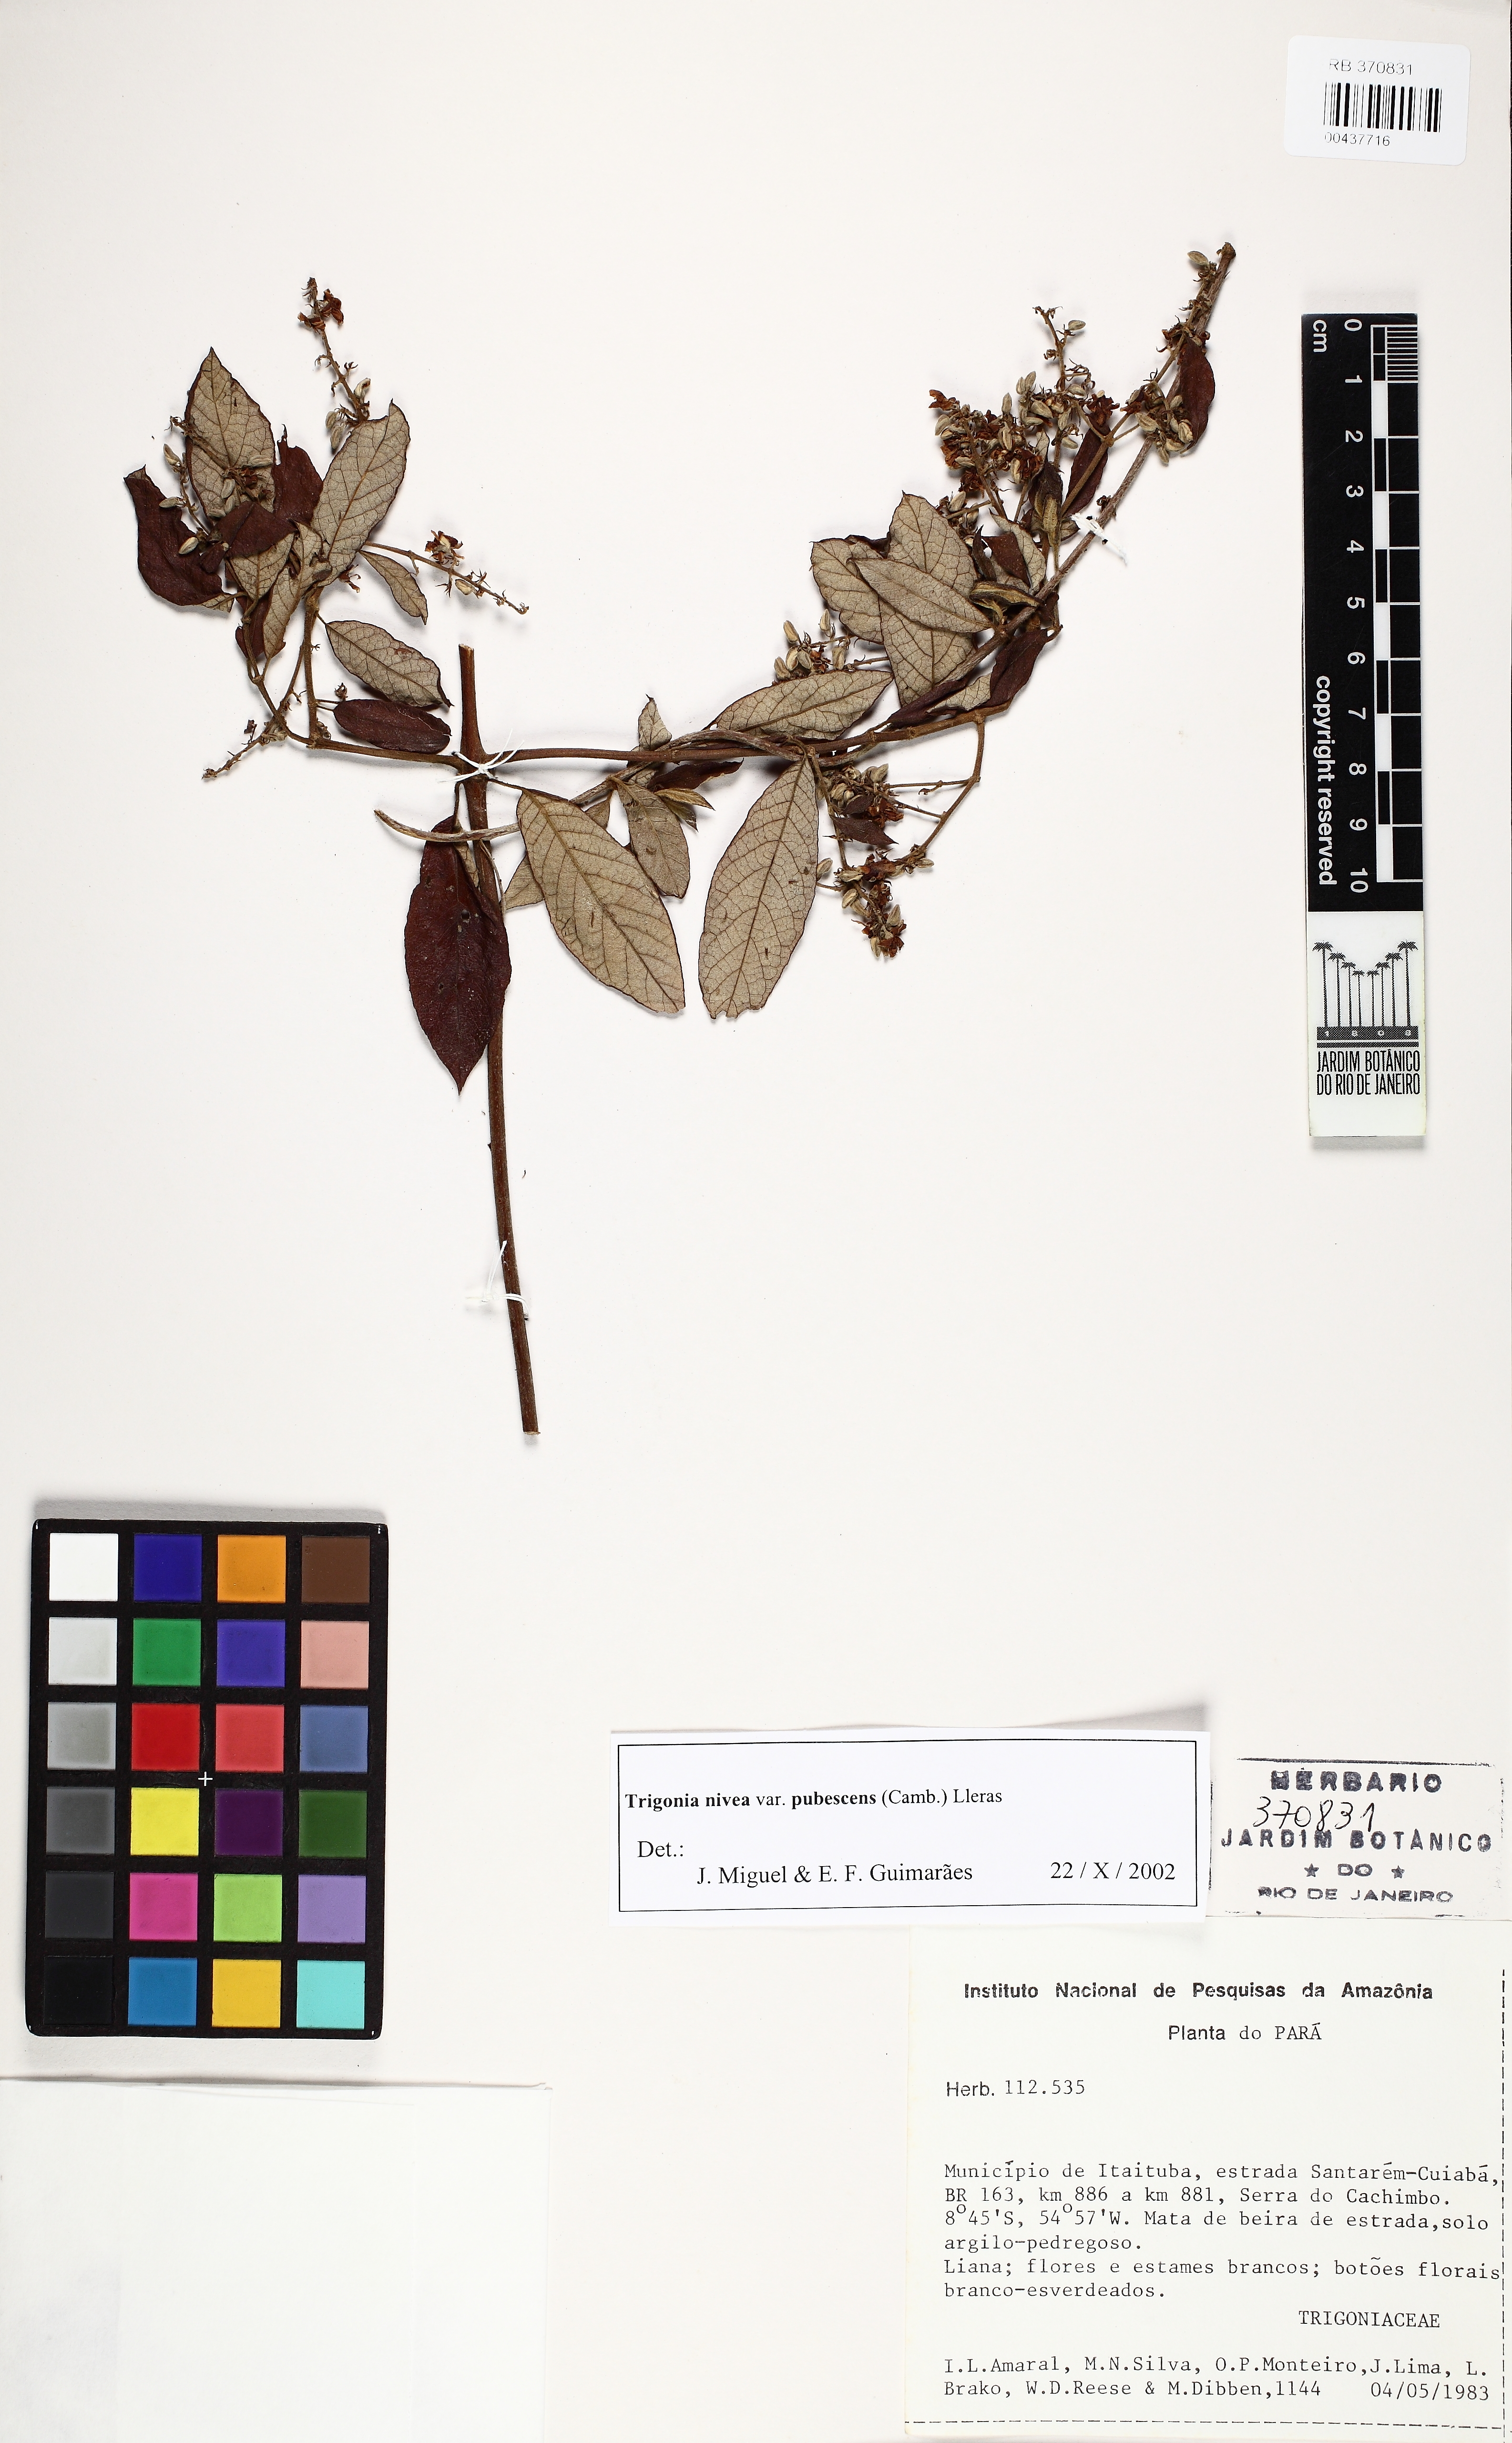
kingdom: Plantae
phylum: Tracheophyta
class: Magnoliopsida
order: Malpighiales
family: Trigoniaceae
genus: Trigonia
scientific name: Trigonia nivea
